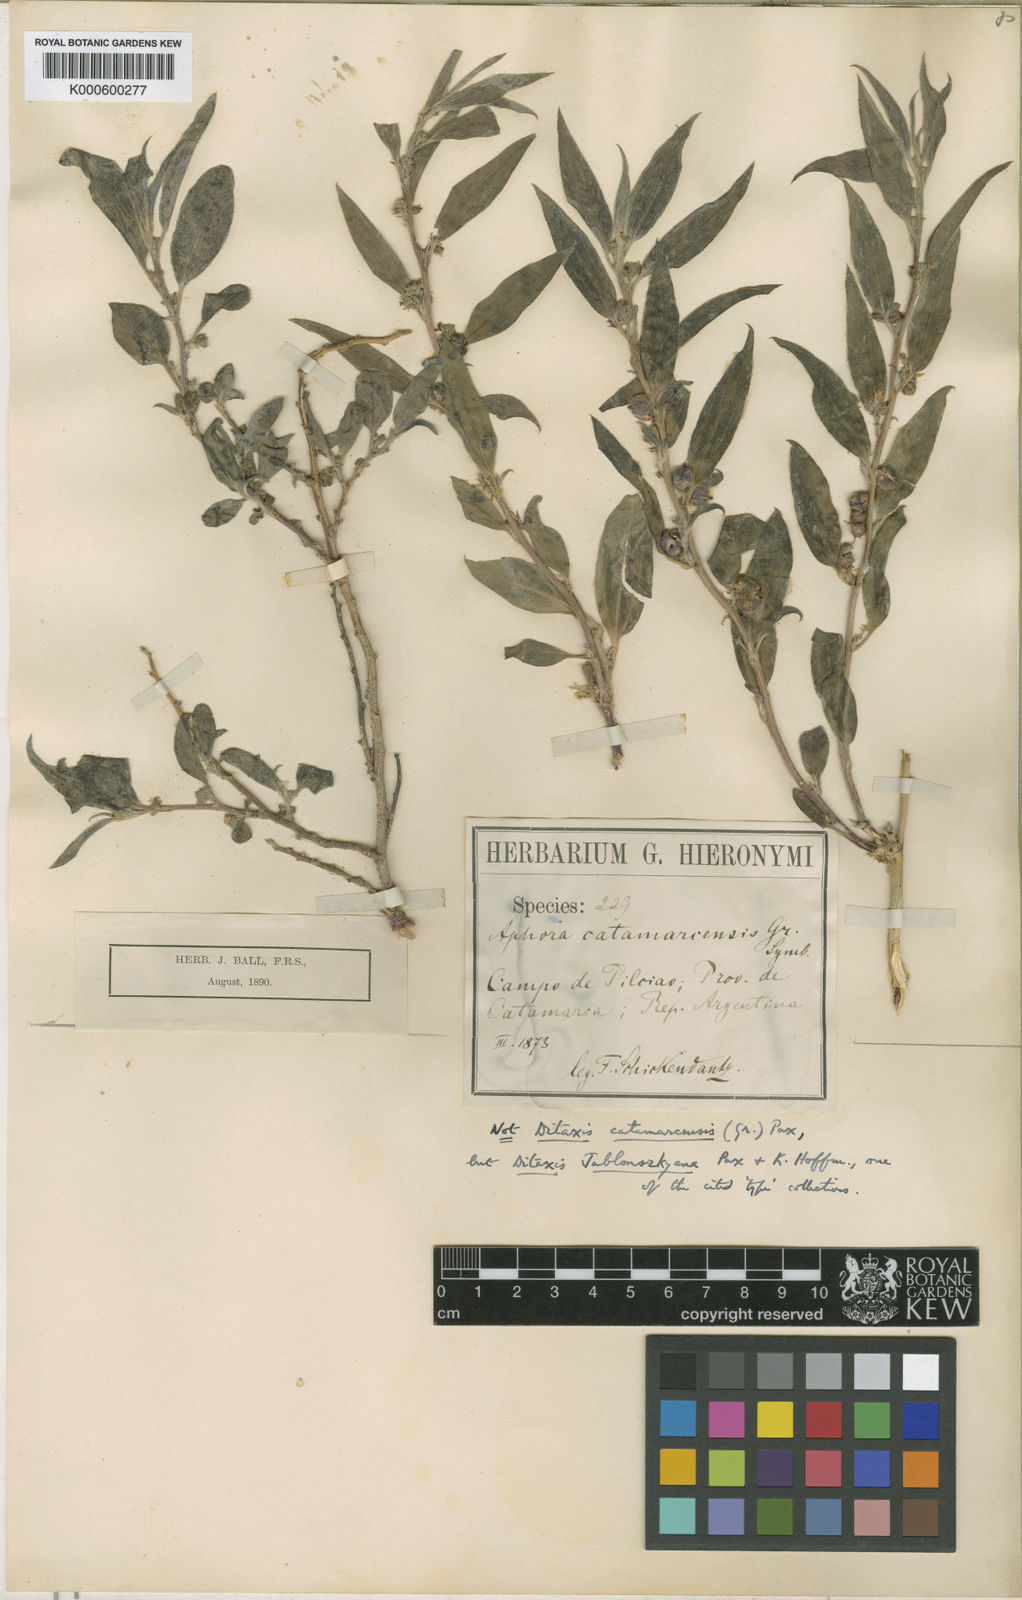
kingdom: Plantae
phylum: Tracheophyta
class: Magnoliopsida
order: Malpighiales
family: Euphorbiaceae
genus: Ditaxis
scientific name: Ditaxis jablonszkyana
